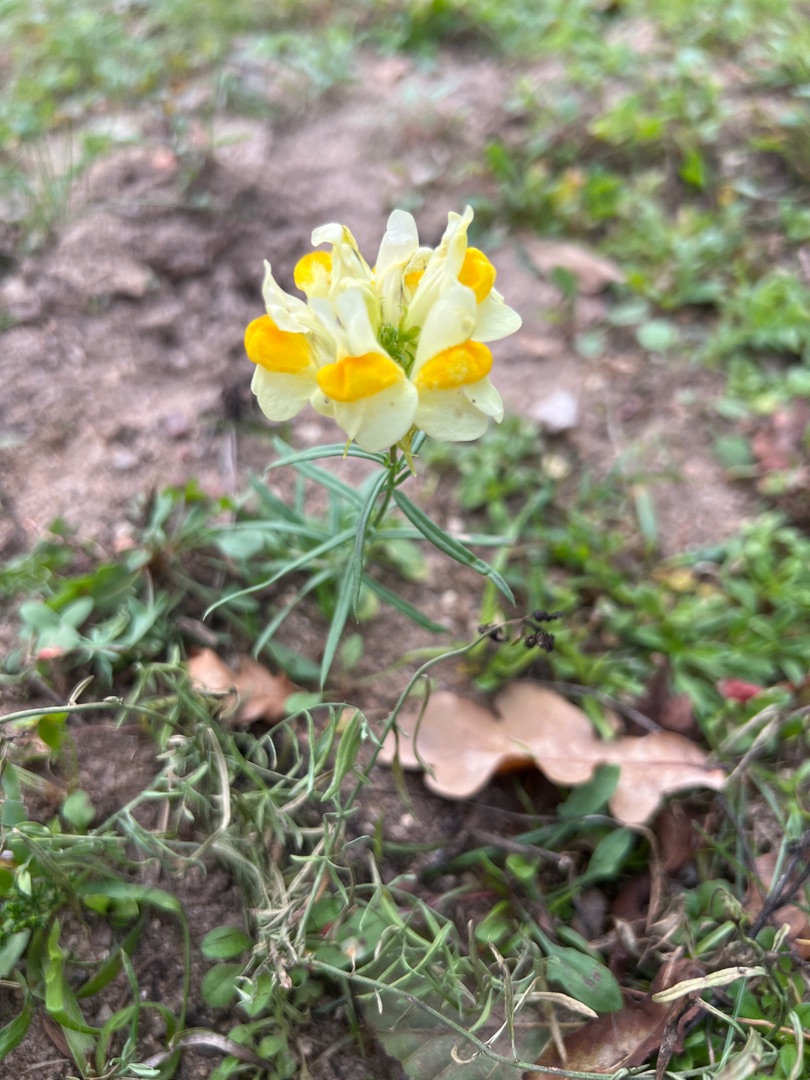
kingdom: Plantae
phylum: Tracheophyta
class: Magnoliopsida
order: Lamiales
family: Plantaginaceae
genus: Linaria
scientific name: Linaria vulgaris
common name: Almindelig torskemund
